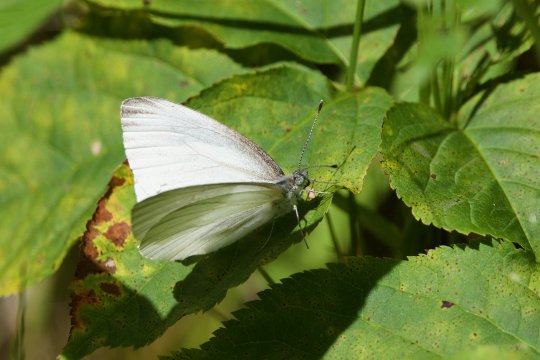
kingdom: Animalia
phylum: Arthropoda
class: Insecta
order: Lepidoptera
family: Pieridae
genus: Pieris
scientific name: Pieris oleracea
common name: Mustard White
